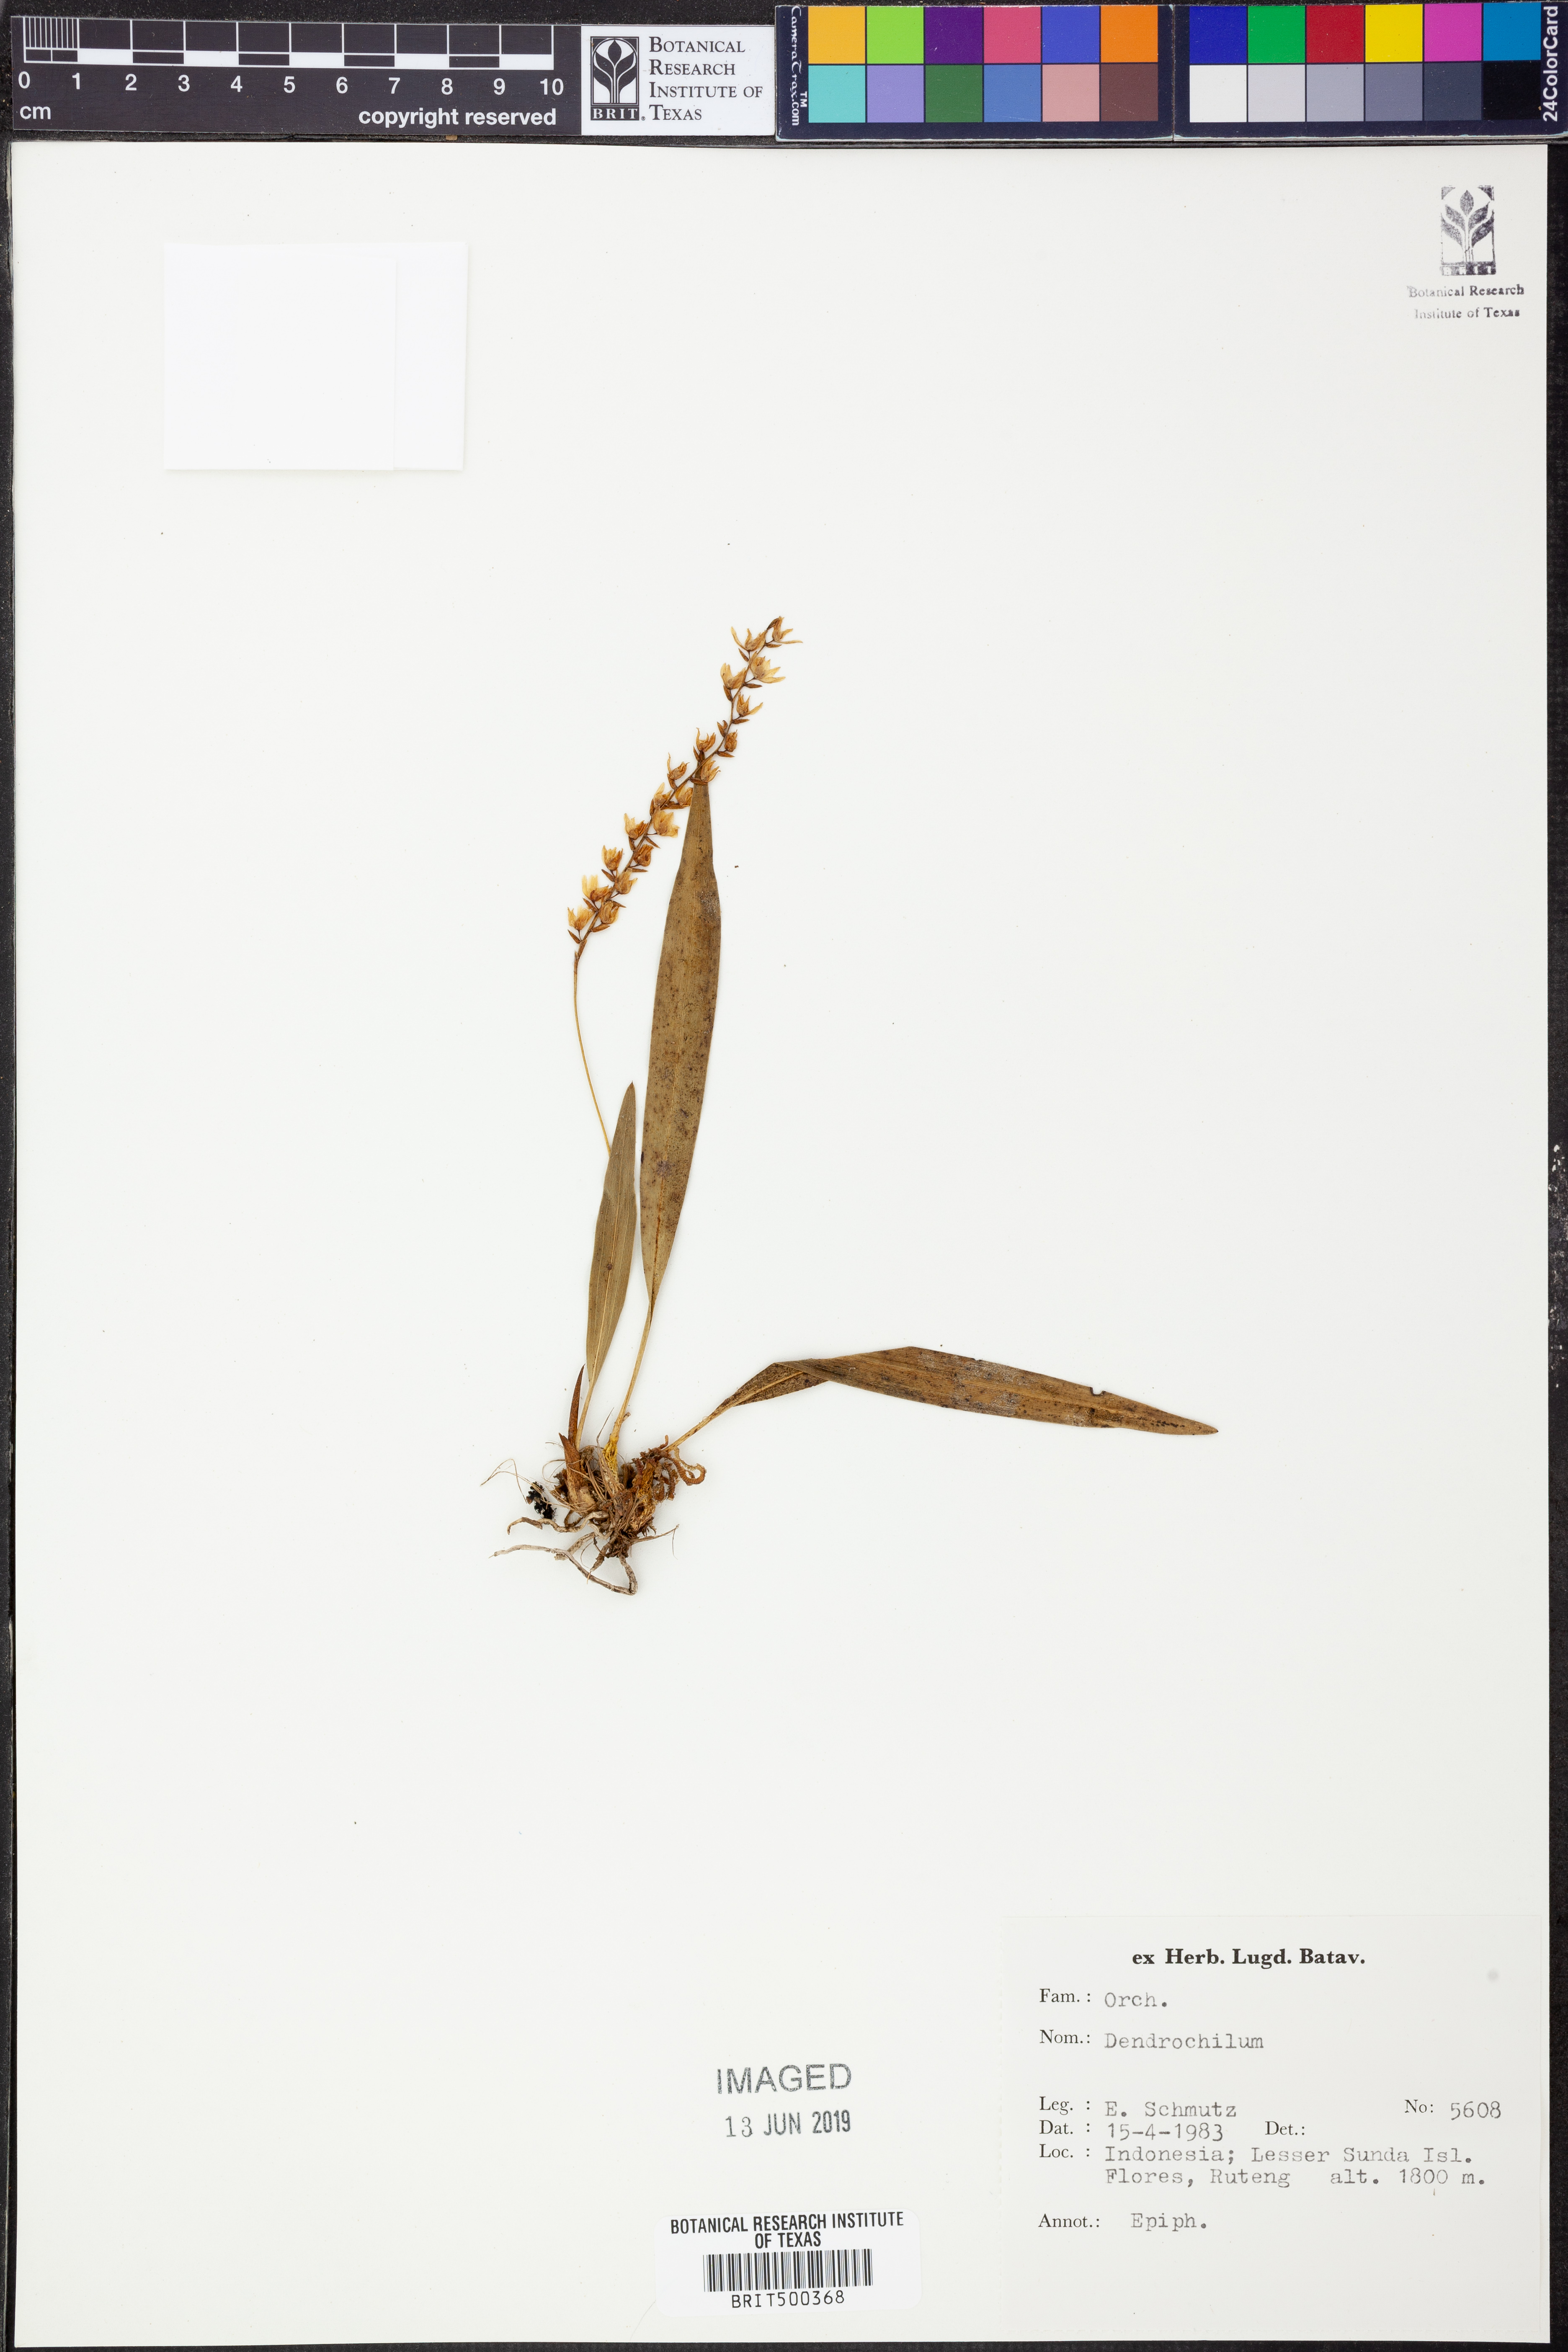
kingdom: Plantae
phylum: Tracheophyta
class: Liliopsida
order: Asparagales
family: Orchidaceae
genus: Coelogyne
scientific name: Coelogyne
